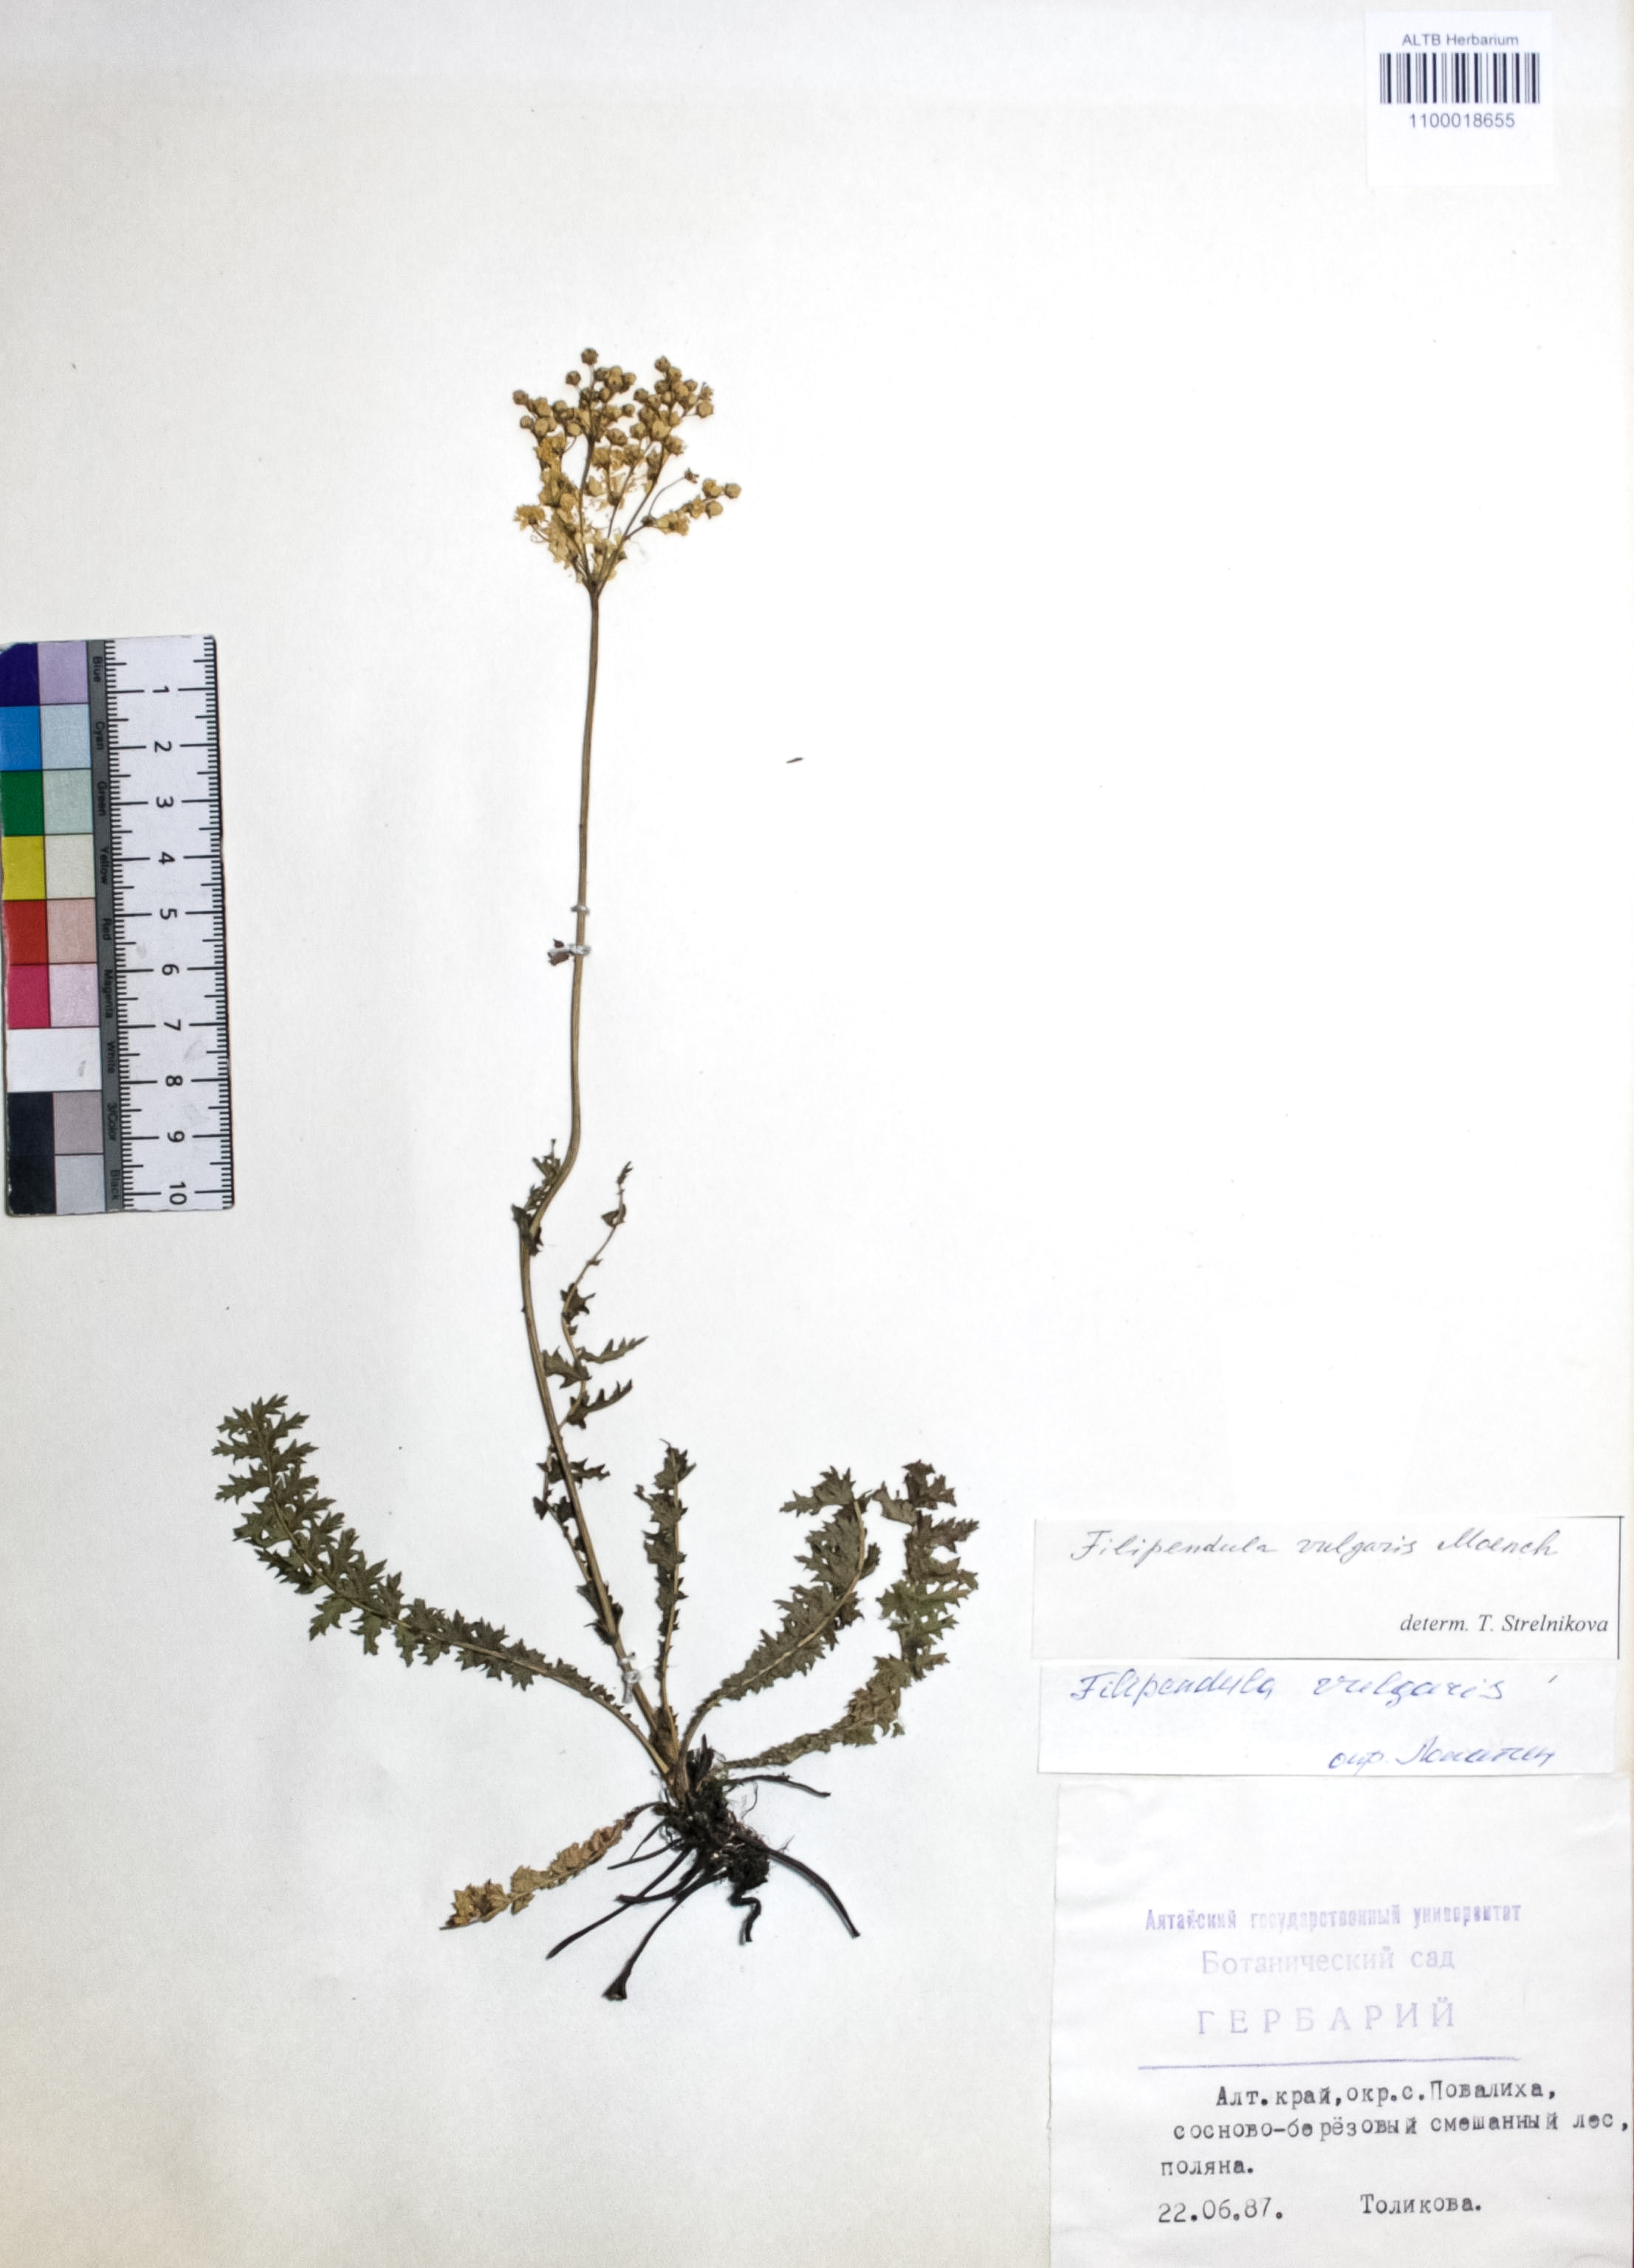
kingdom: Plantae
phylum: Tracheophyta
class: Magnoliopsida
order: Rosales
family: Rosaceae
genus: Filipendula
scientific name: Filipendula vulgaris
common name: Dropwort
